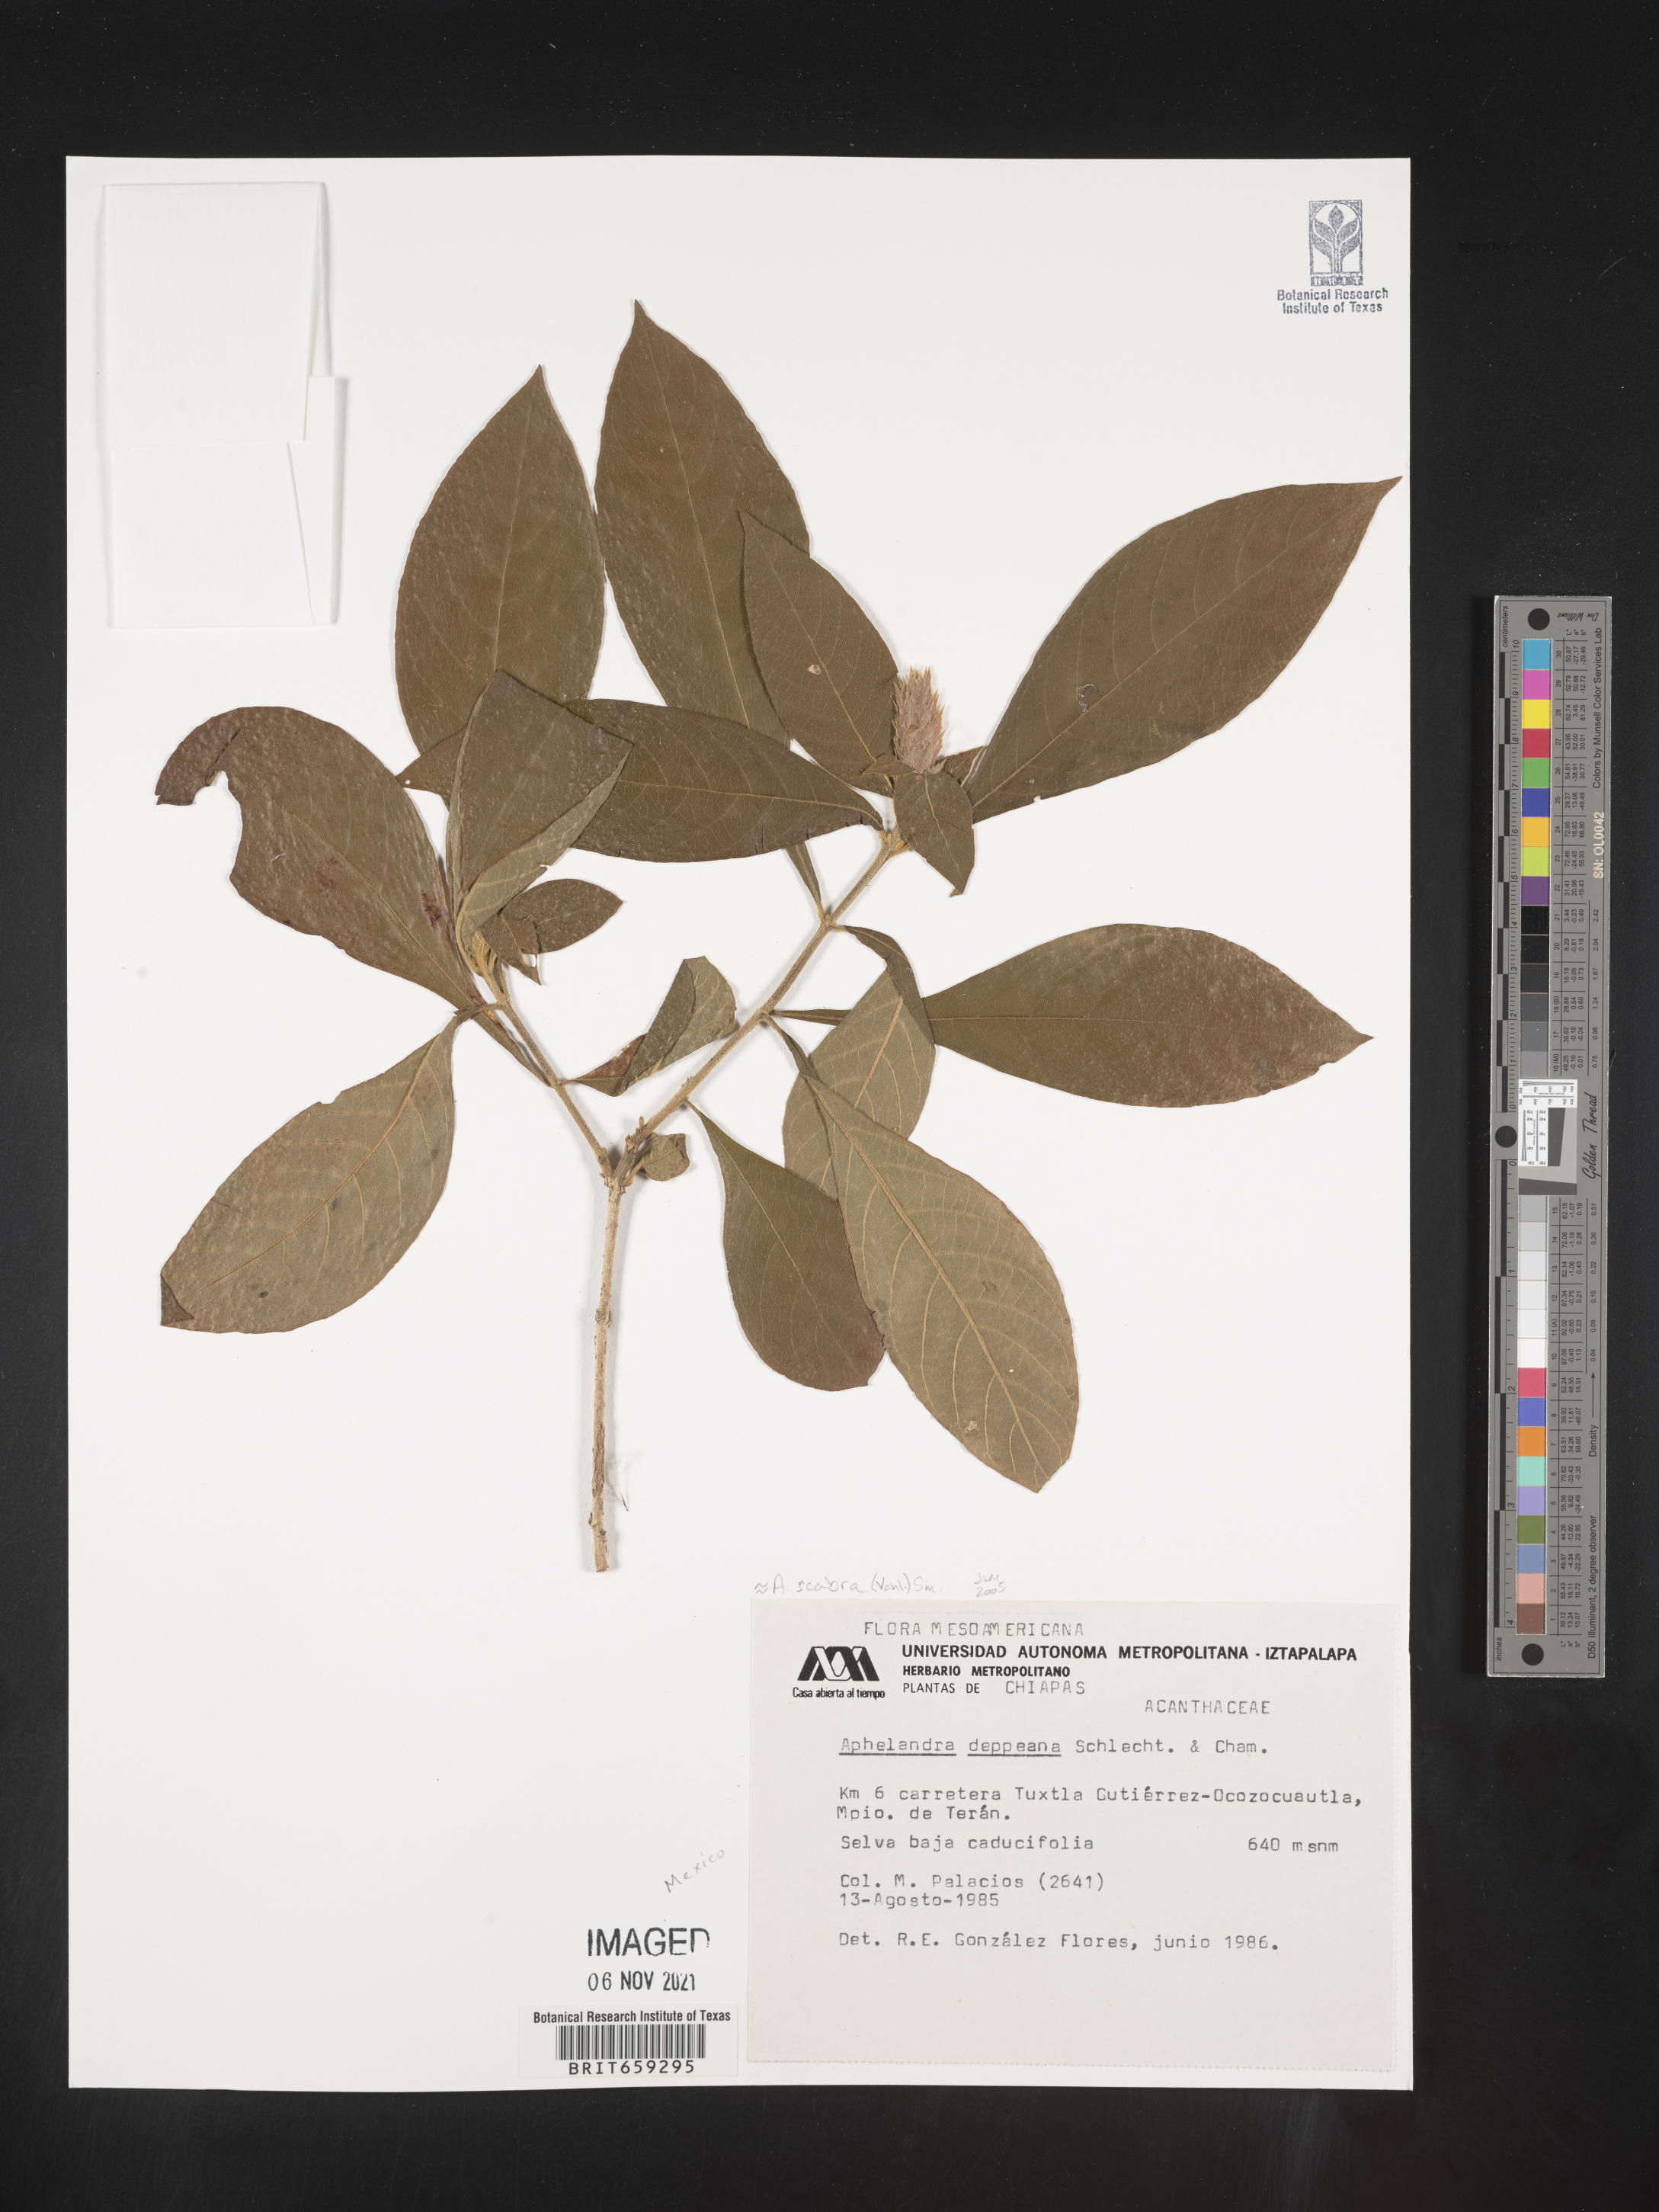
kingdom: Plantae
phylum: Tracheophyta
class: Magnoliopsida
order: Lamiales
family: Acanthaceae
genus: Aphelandra
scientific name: Aphelandra
